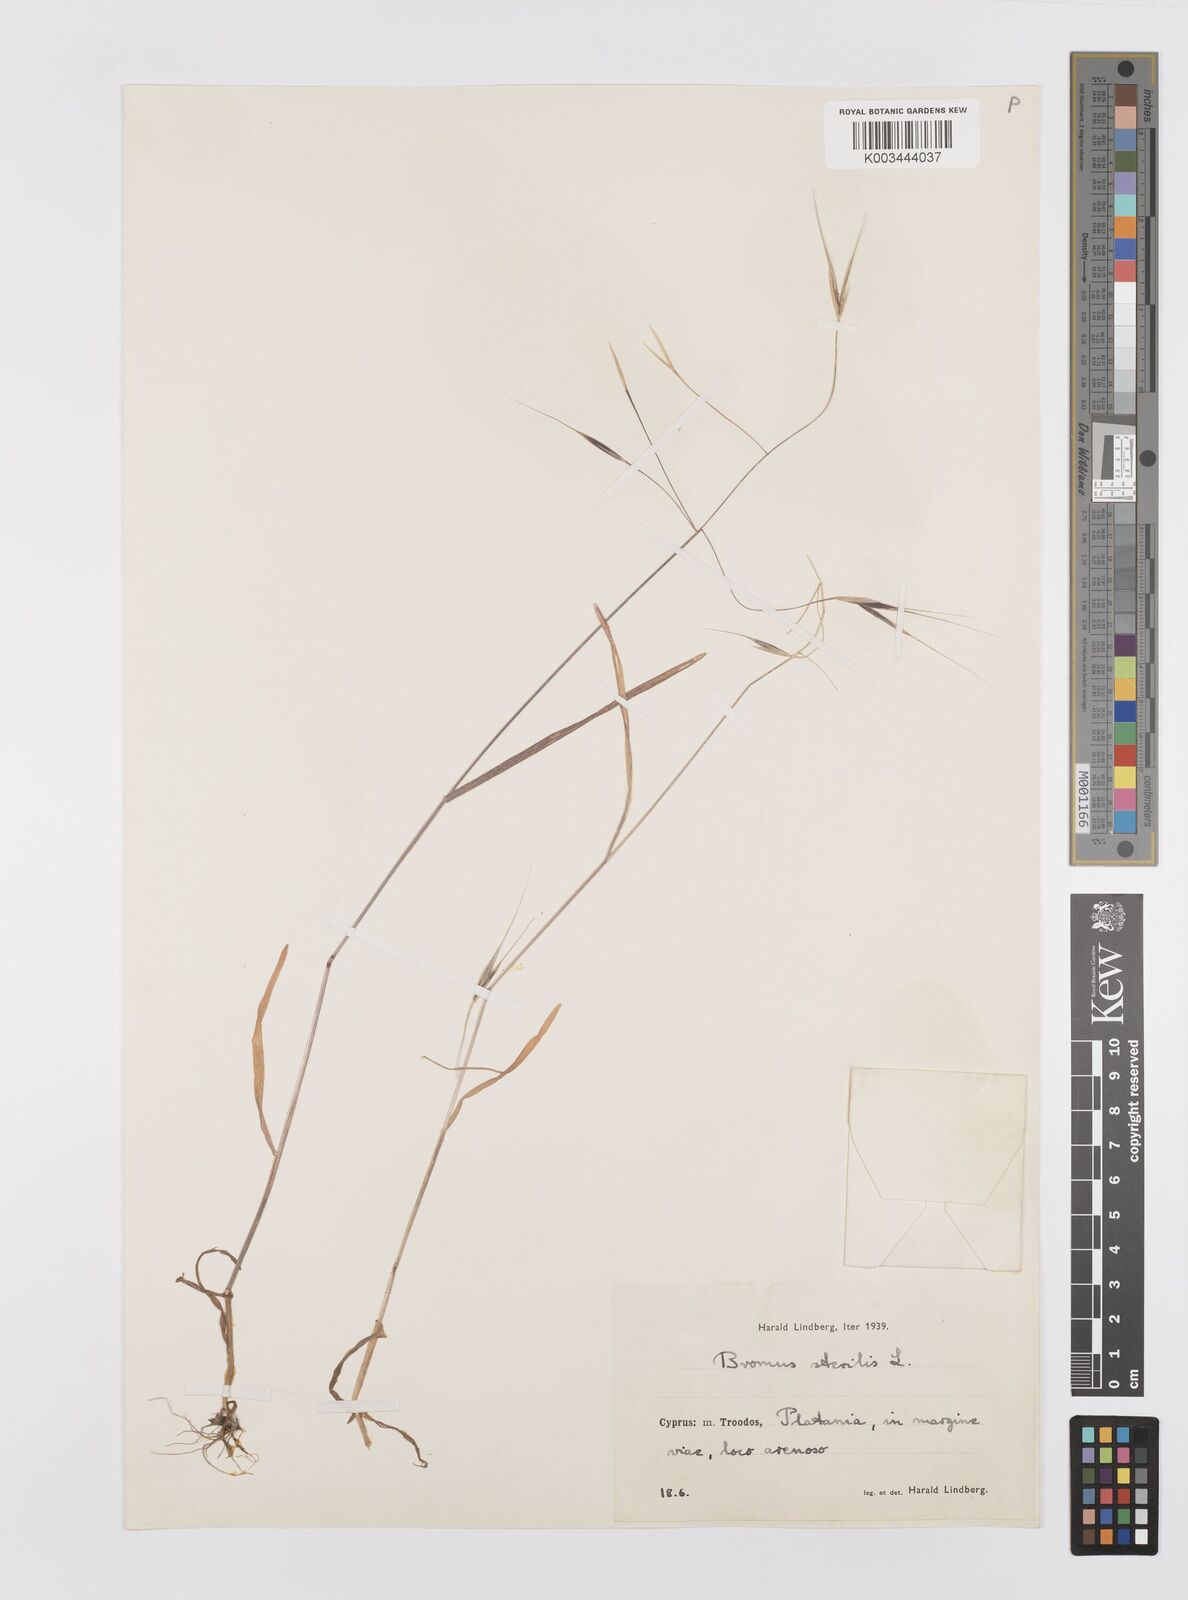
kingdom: Plantae
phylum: Tracheophyta
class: Liliopsida
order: Poales
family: Poaceae
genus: Bromus
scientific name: Bromus sterilis
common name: Poverty brome
